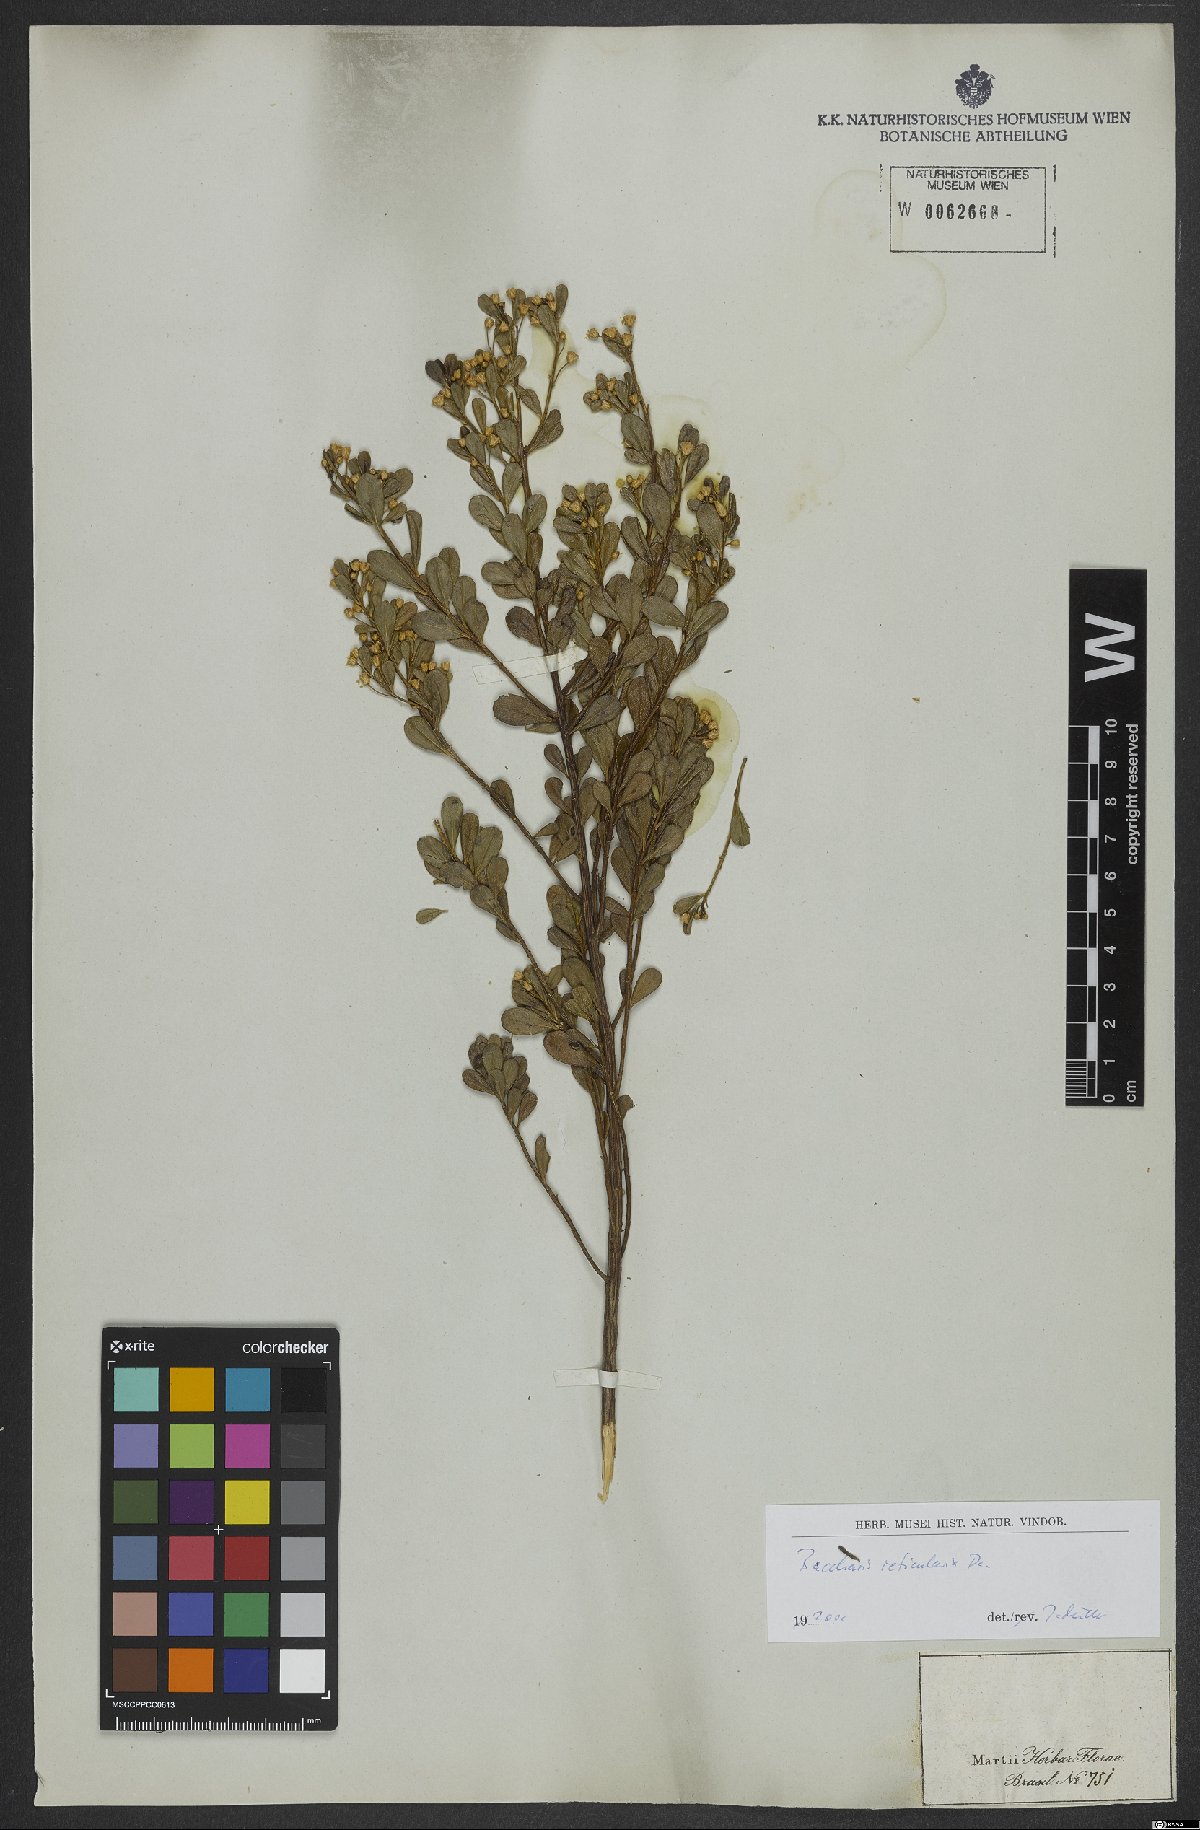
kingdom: Plantae
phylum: Tracheophyta
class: Magnoliopsida
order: Asterales
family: Asteraceae
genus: Baccharis
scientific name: Baccharis reticularia
